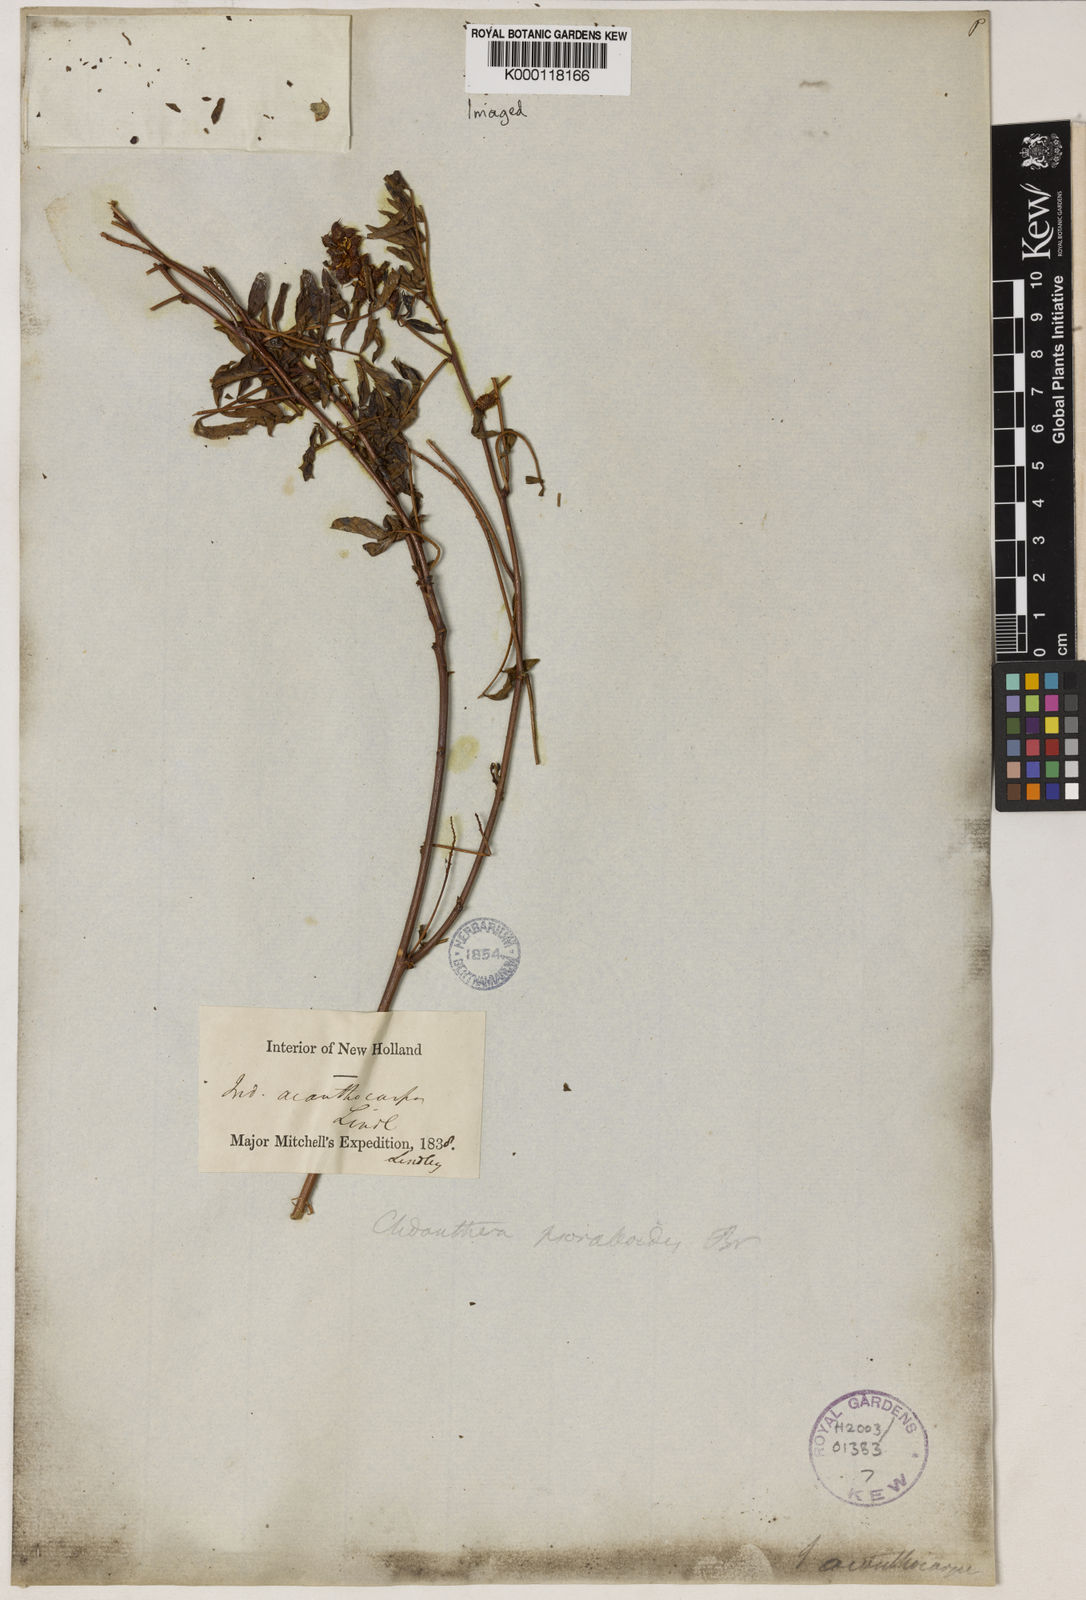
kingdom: Plantae
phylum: Tracheophyta
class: Magnoliopsida
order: Fabales
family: Fabaceae
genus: Glycyrrhiza
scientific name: Glycyrrhiza
